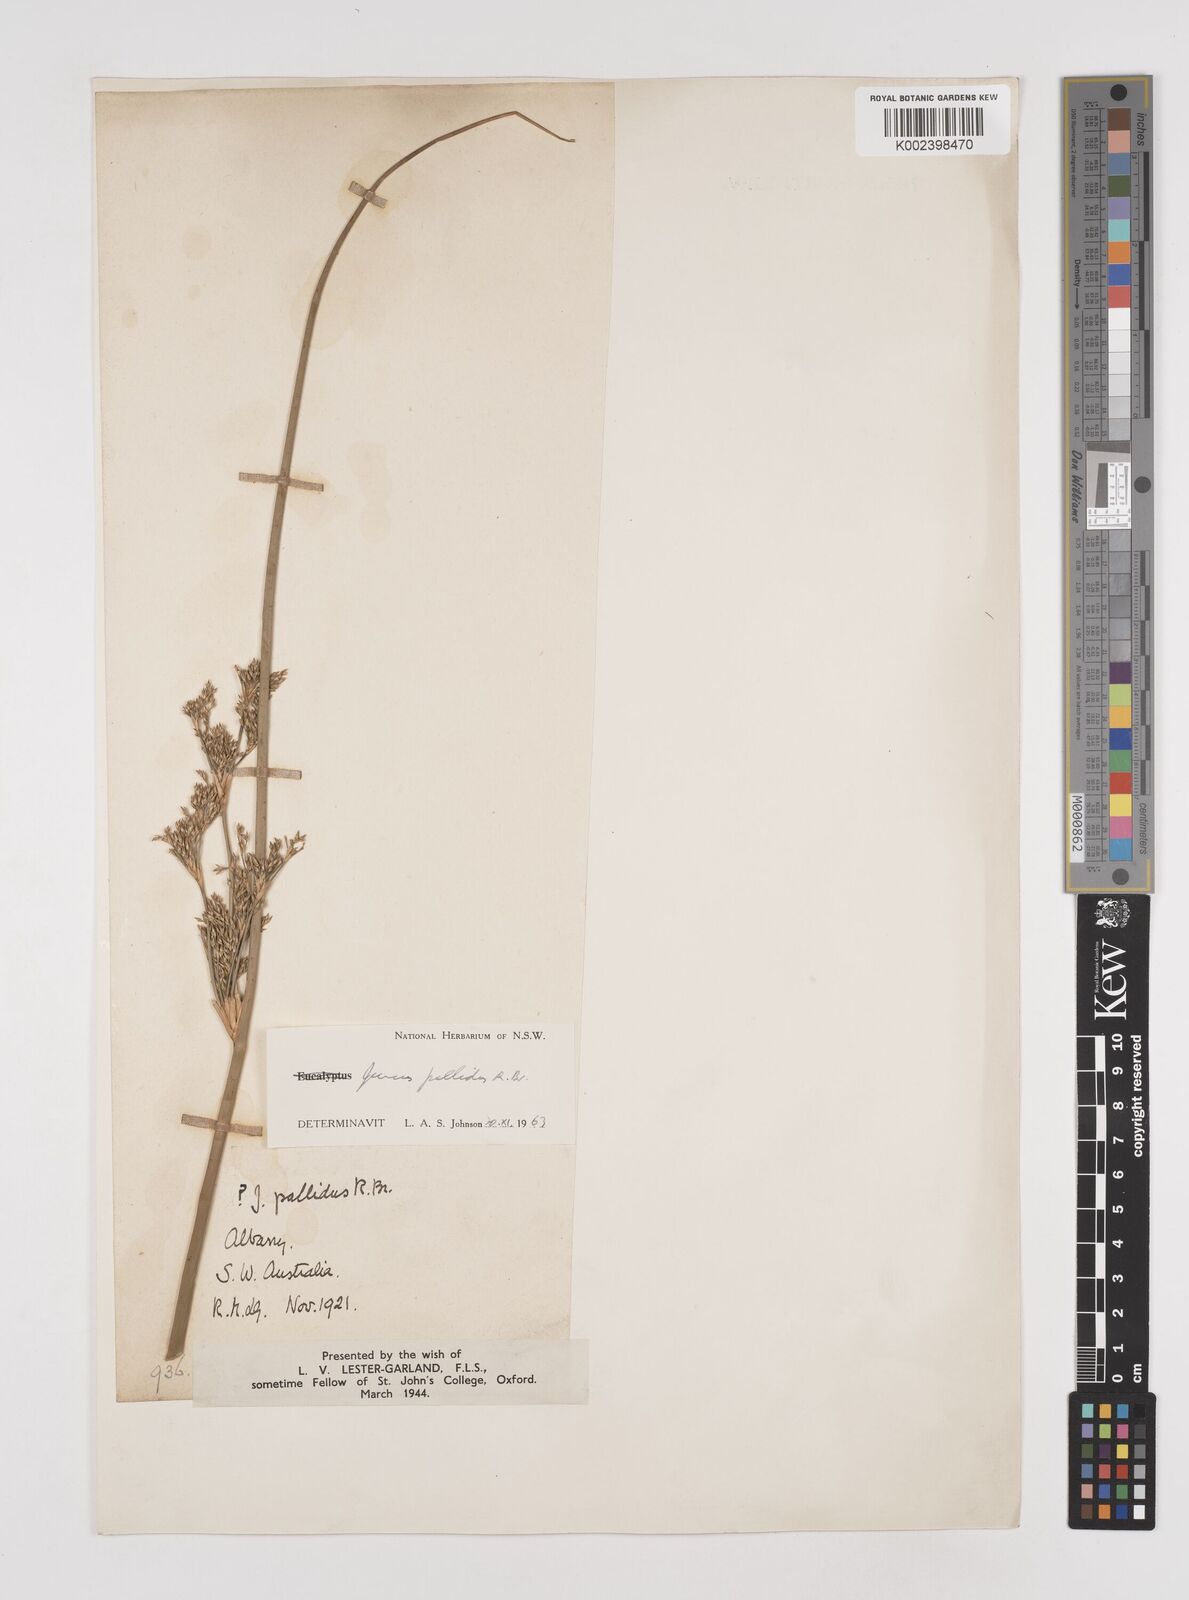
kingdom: Plantae
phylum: Tracheophyta
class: Liliopsida
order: Poales
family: Juncaceae
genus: Juncus
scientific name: Juncus pallidus
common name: Great soft-rush
